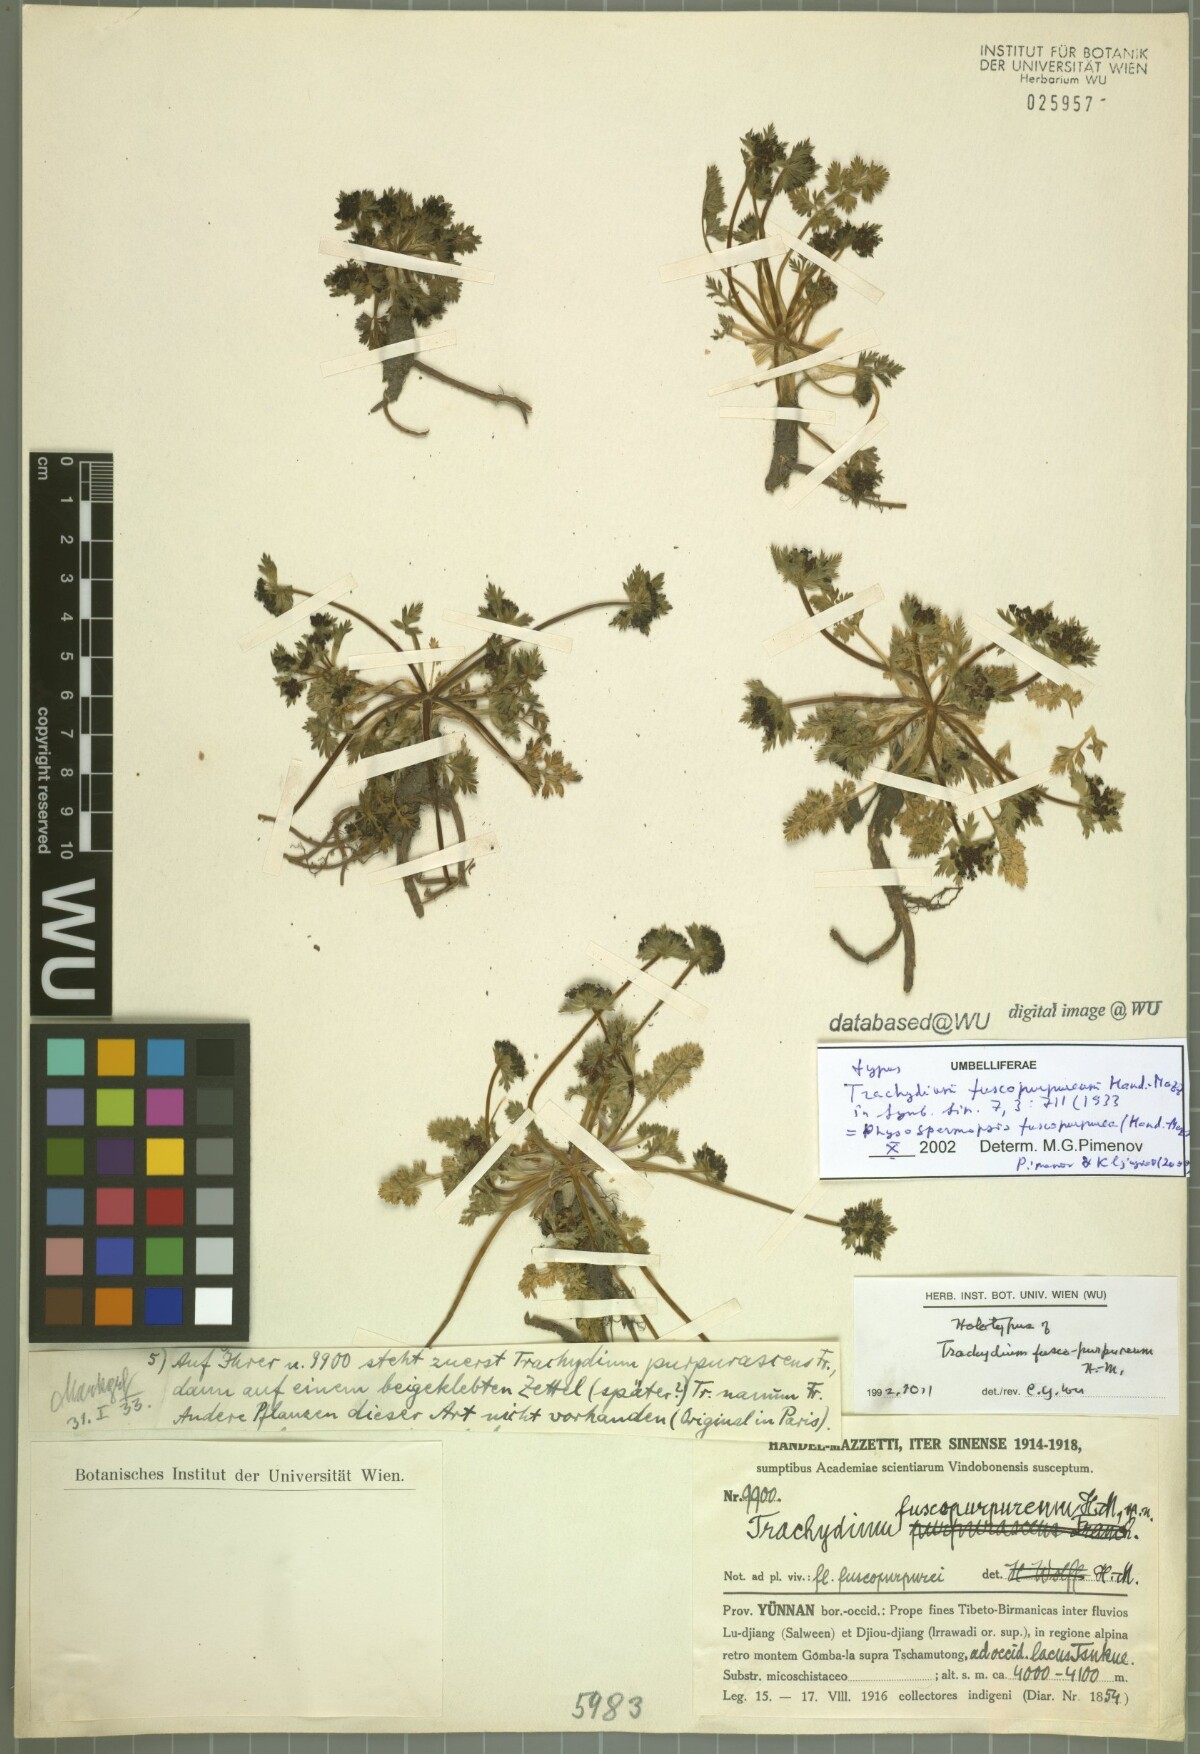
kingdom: Plantae
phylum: Tracheophyta
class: Magnoliopsida
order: Apiales
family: Apiaceae
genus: Hymenidium
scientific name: Hymenidium heterosciadium
